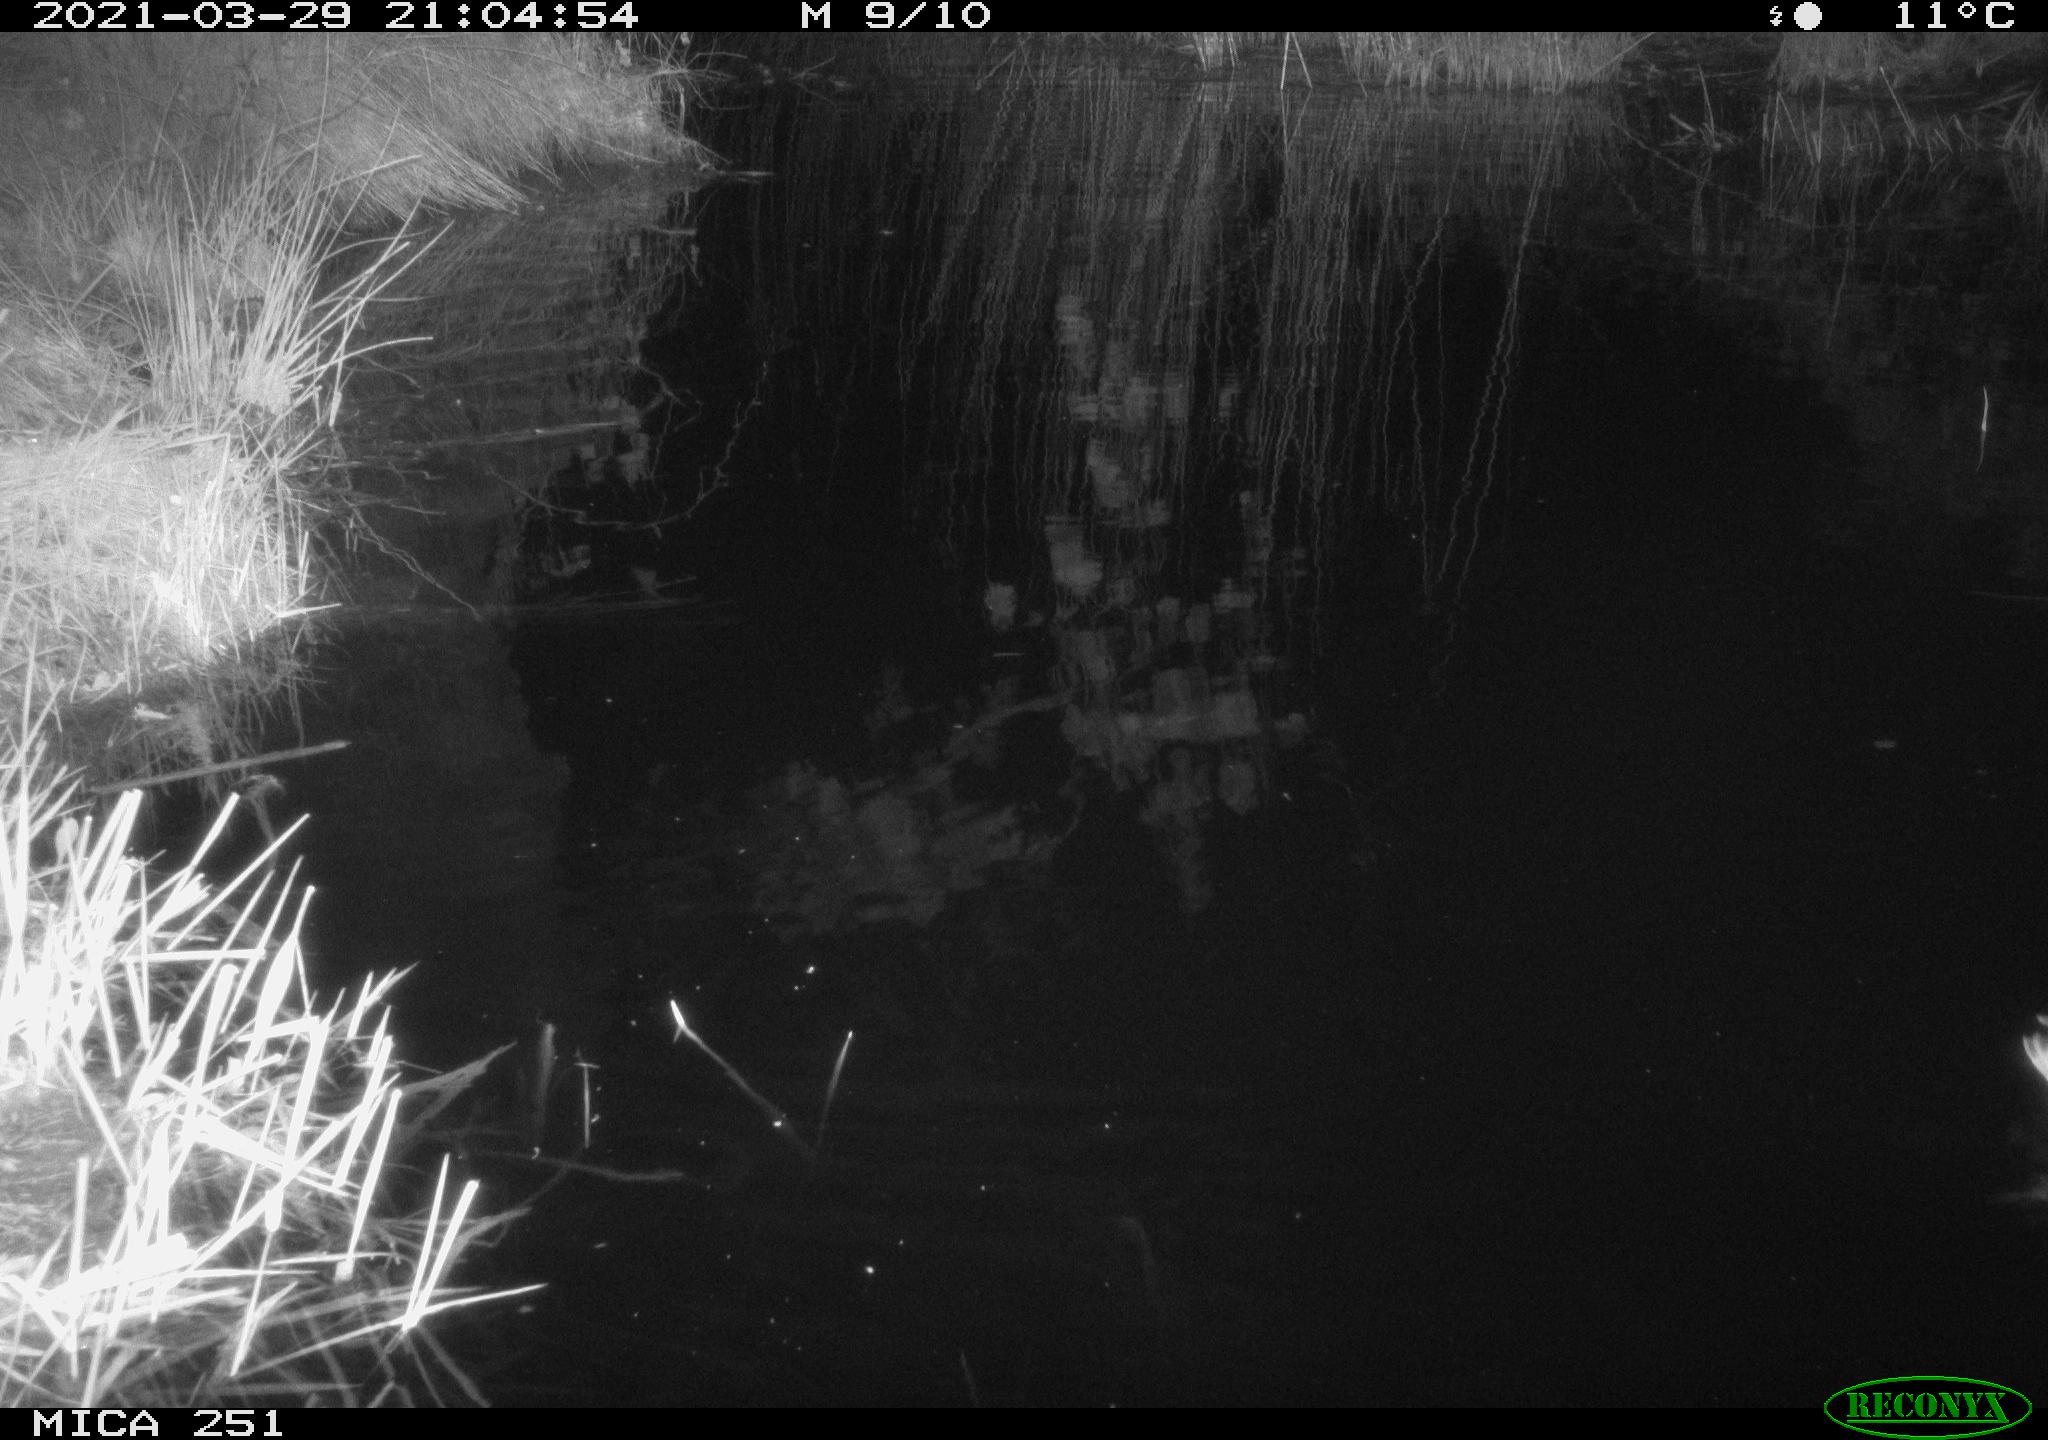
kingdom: Animalia
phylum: Chordata
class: Aves
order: Anseriformes
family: Anatidae
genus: Anas
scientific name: Anas platyrhynchos
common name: Mallard
